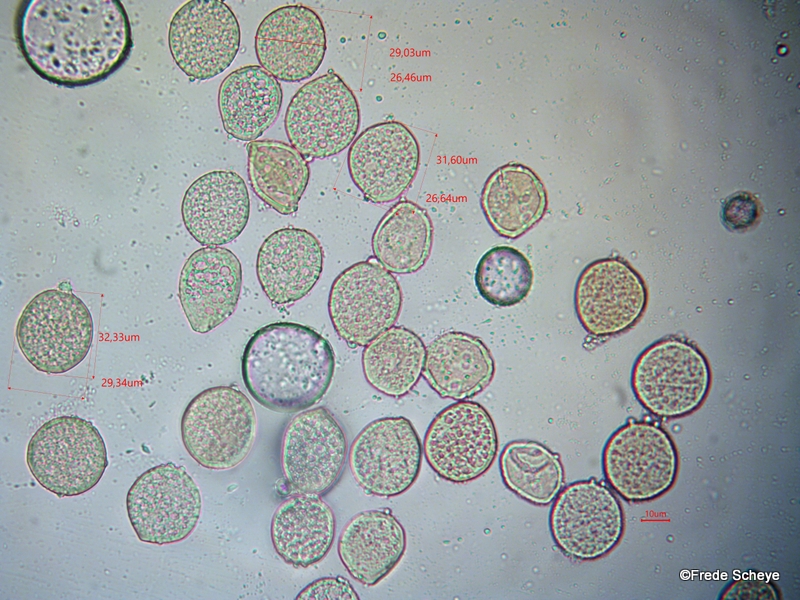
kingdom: Fungi
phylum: Basidiomycota
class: Pucciniomycetes
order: Pucciniales
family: Gymnosporangiaceae
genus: Gymnosporangium
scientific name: Gymnosporangium cornutum
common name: rønnehorn-bævrerust
